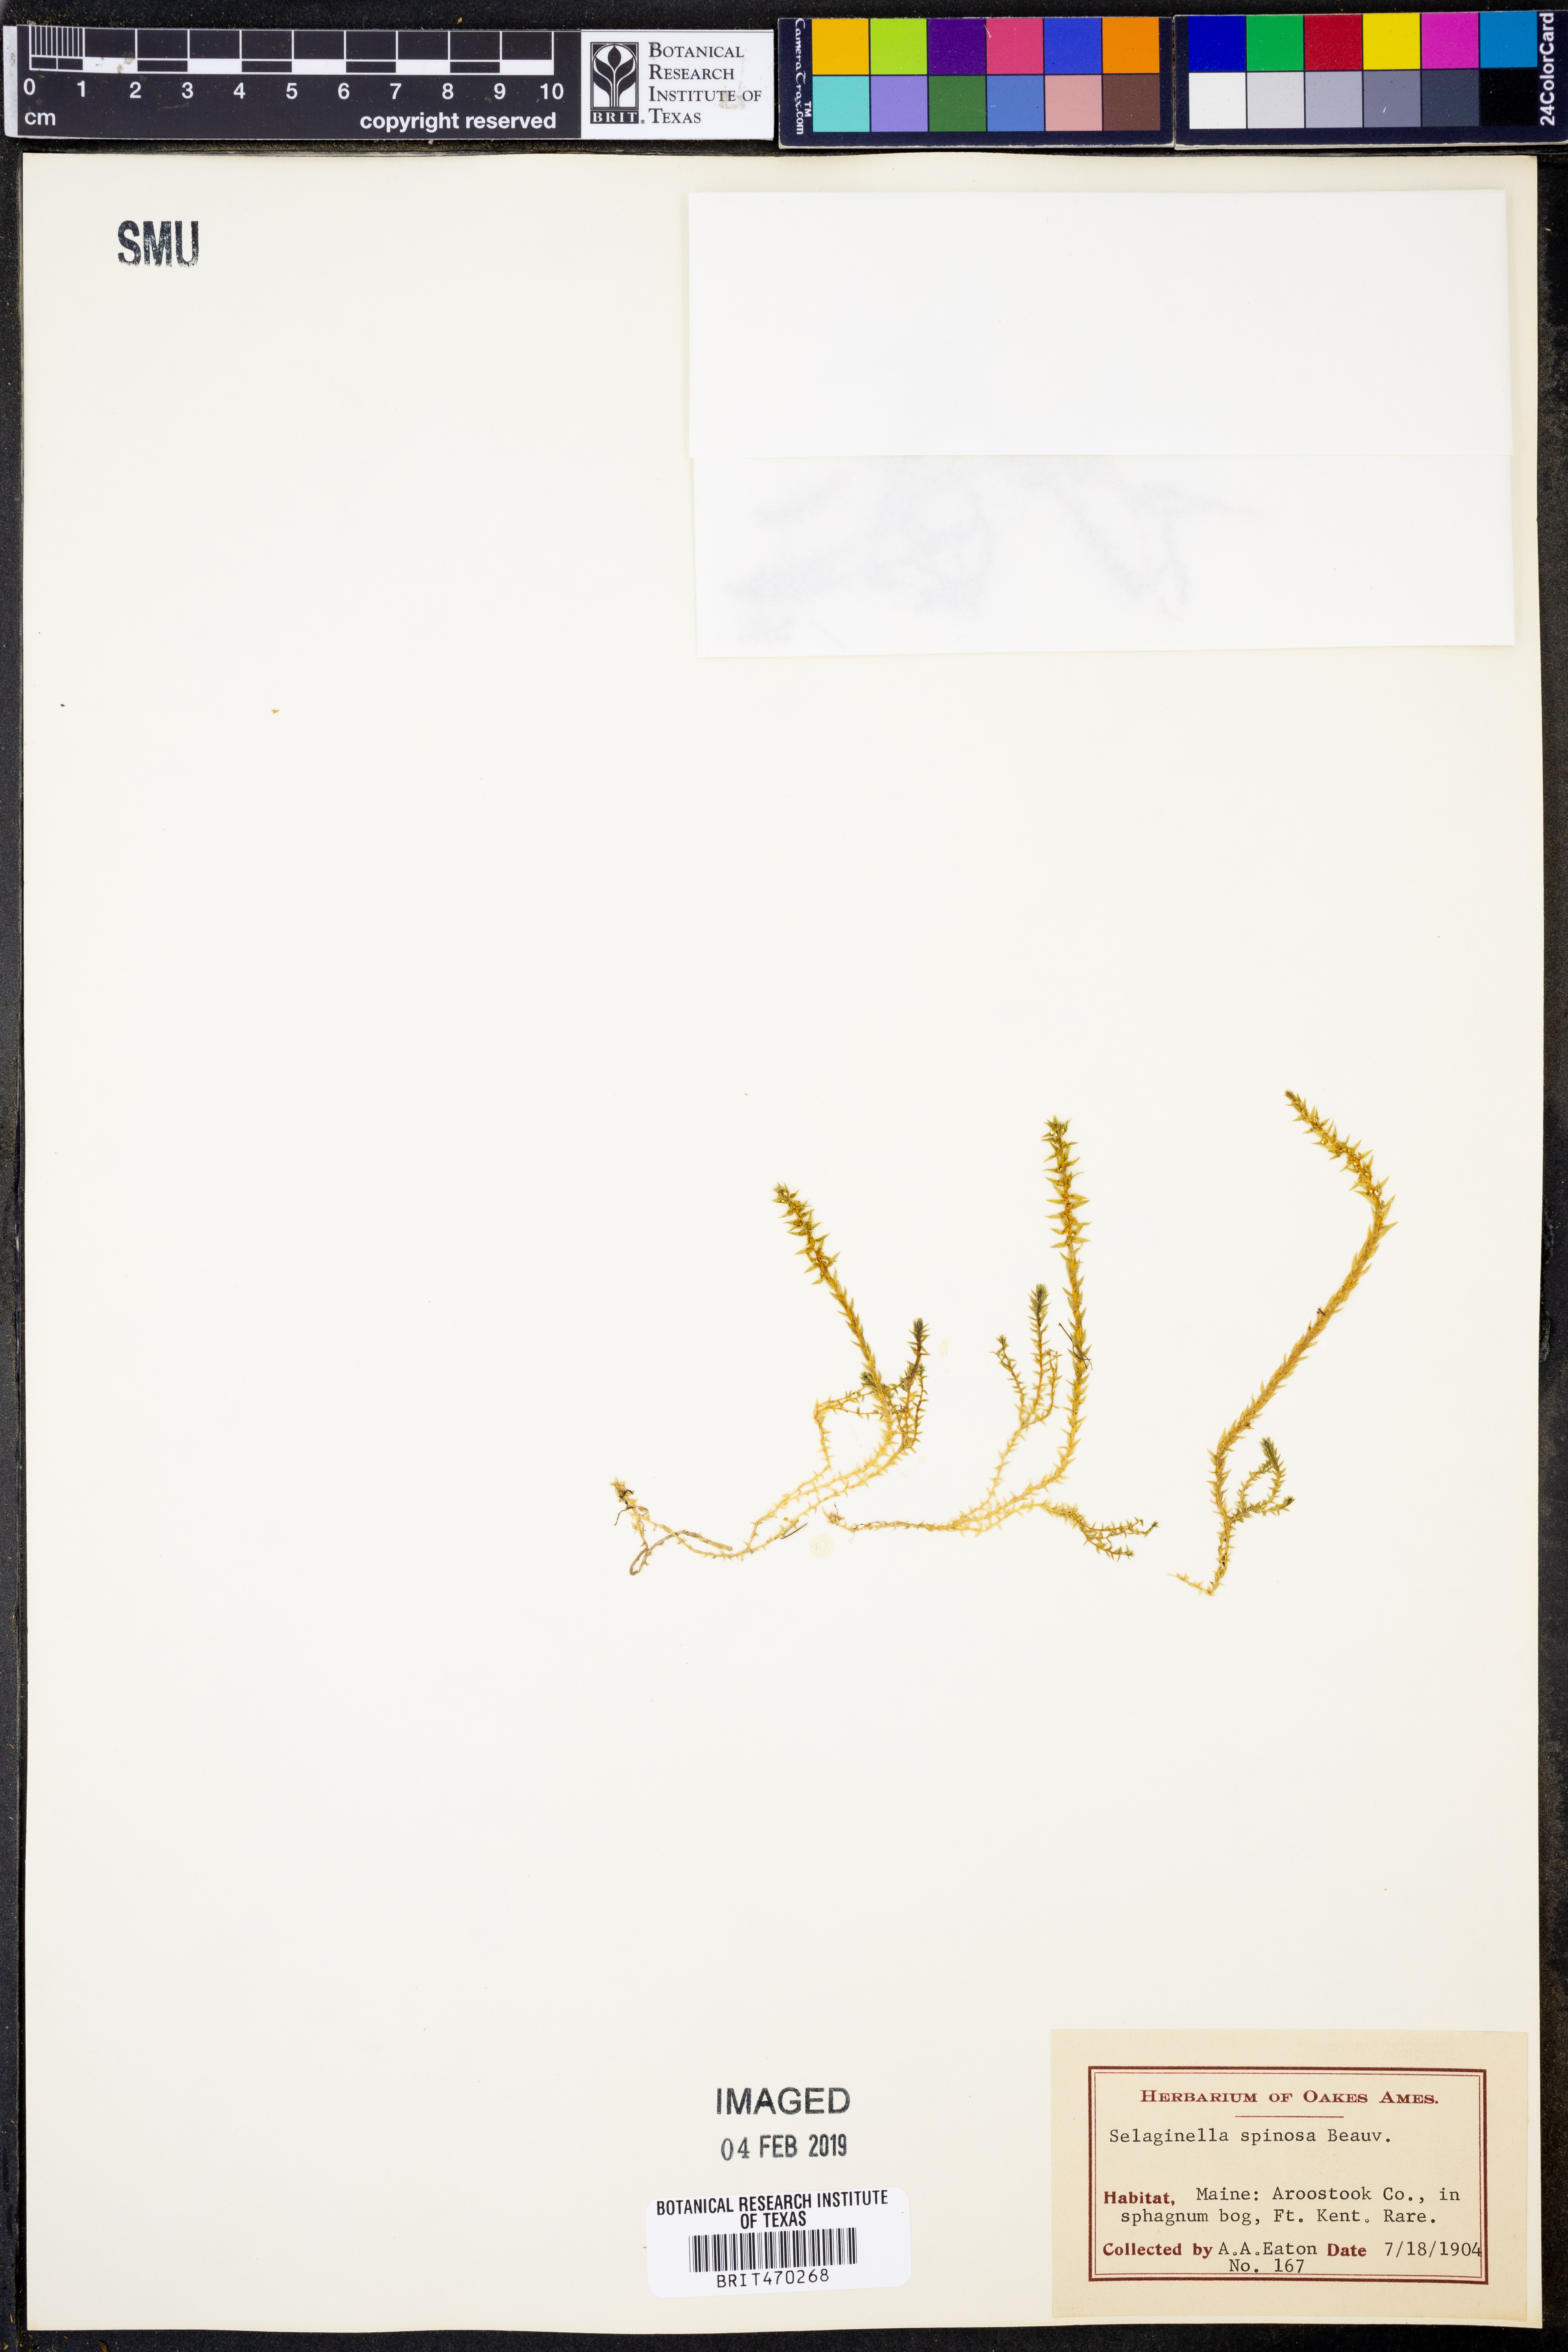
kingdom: Plantae
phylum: Tracheophyta
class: Lycopodiopsida
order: Selaginellales
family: Selaginellaceae
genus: Selaginella
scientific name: Selaginella selaginoides
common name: Prickly mountain-moss
